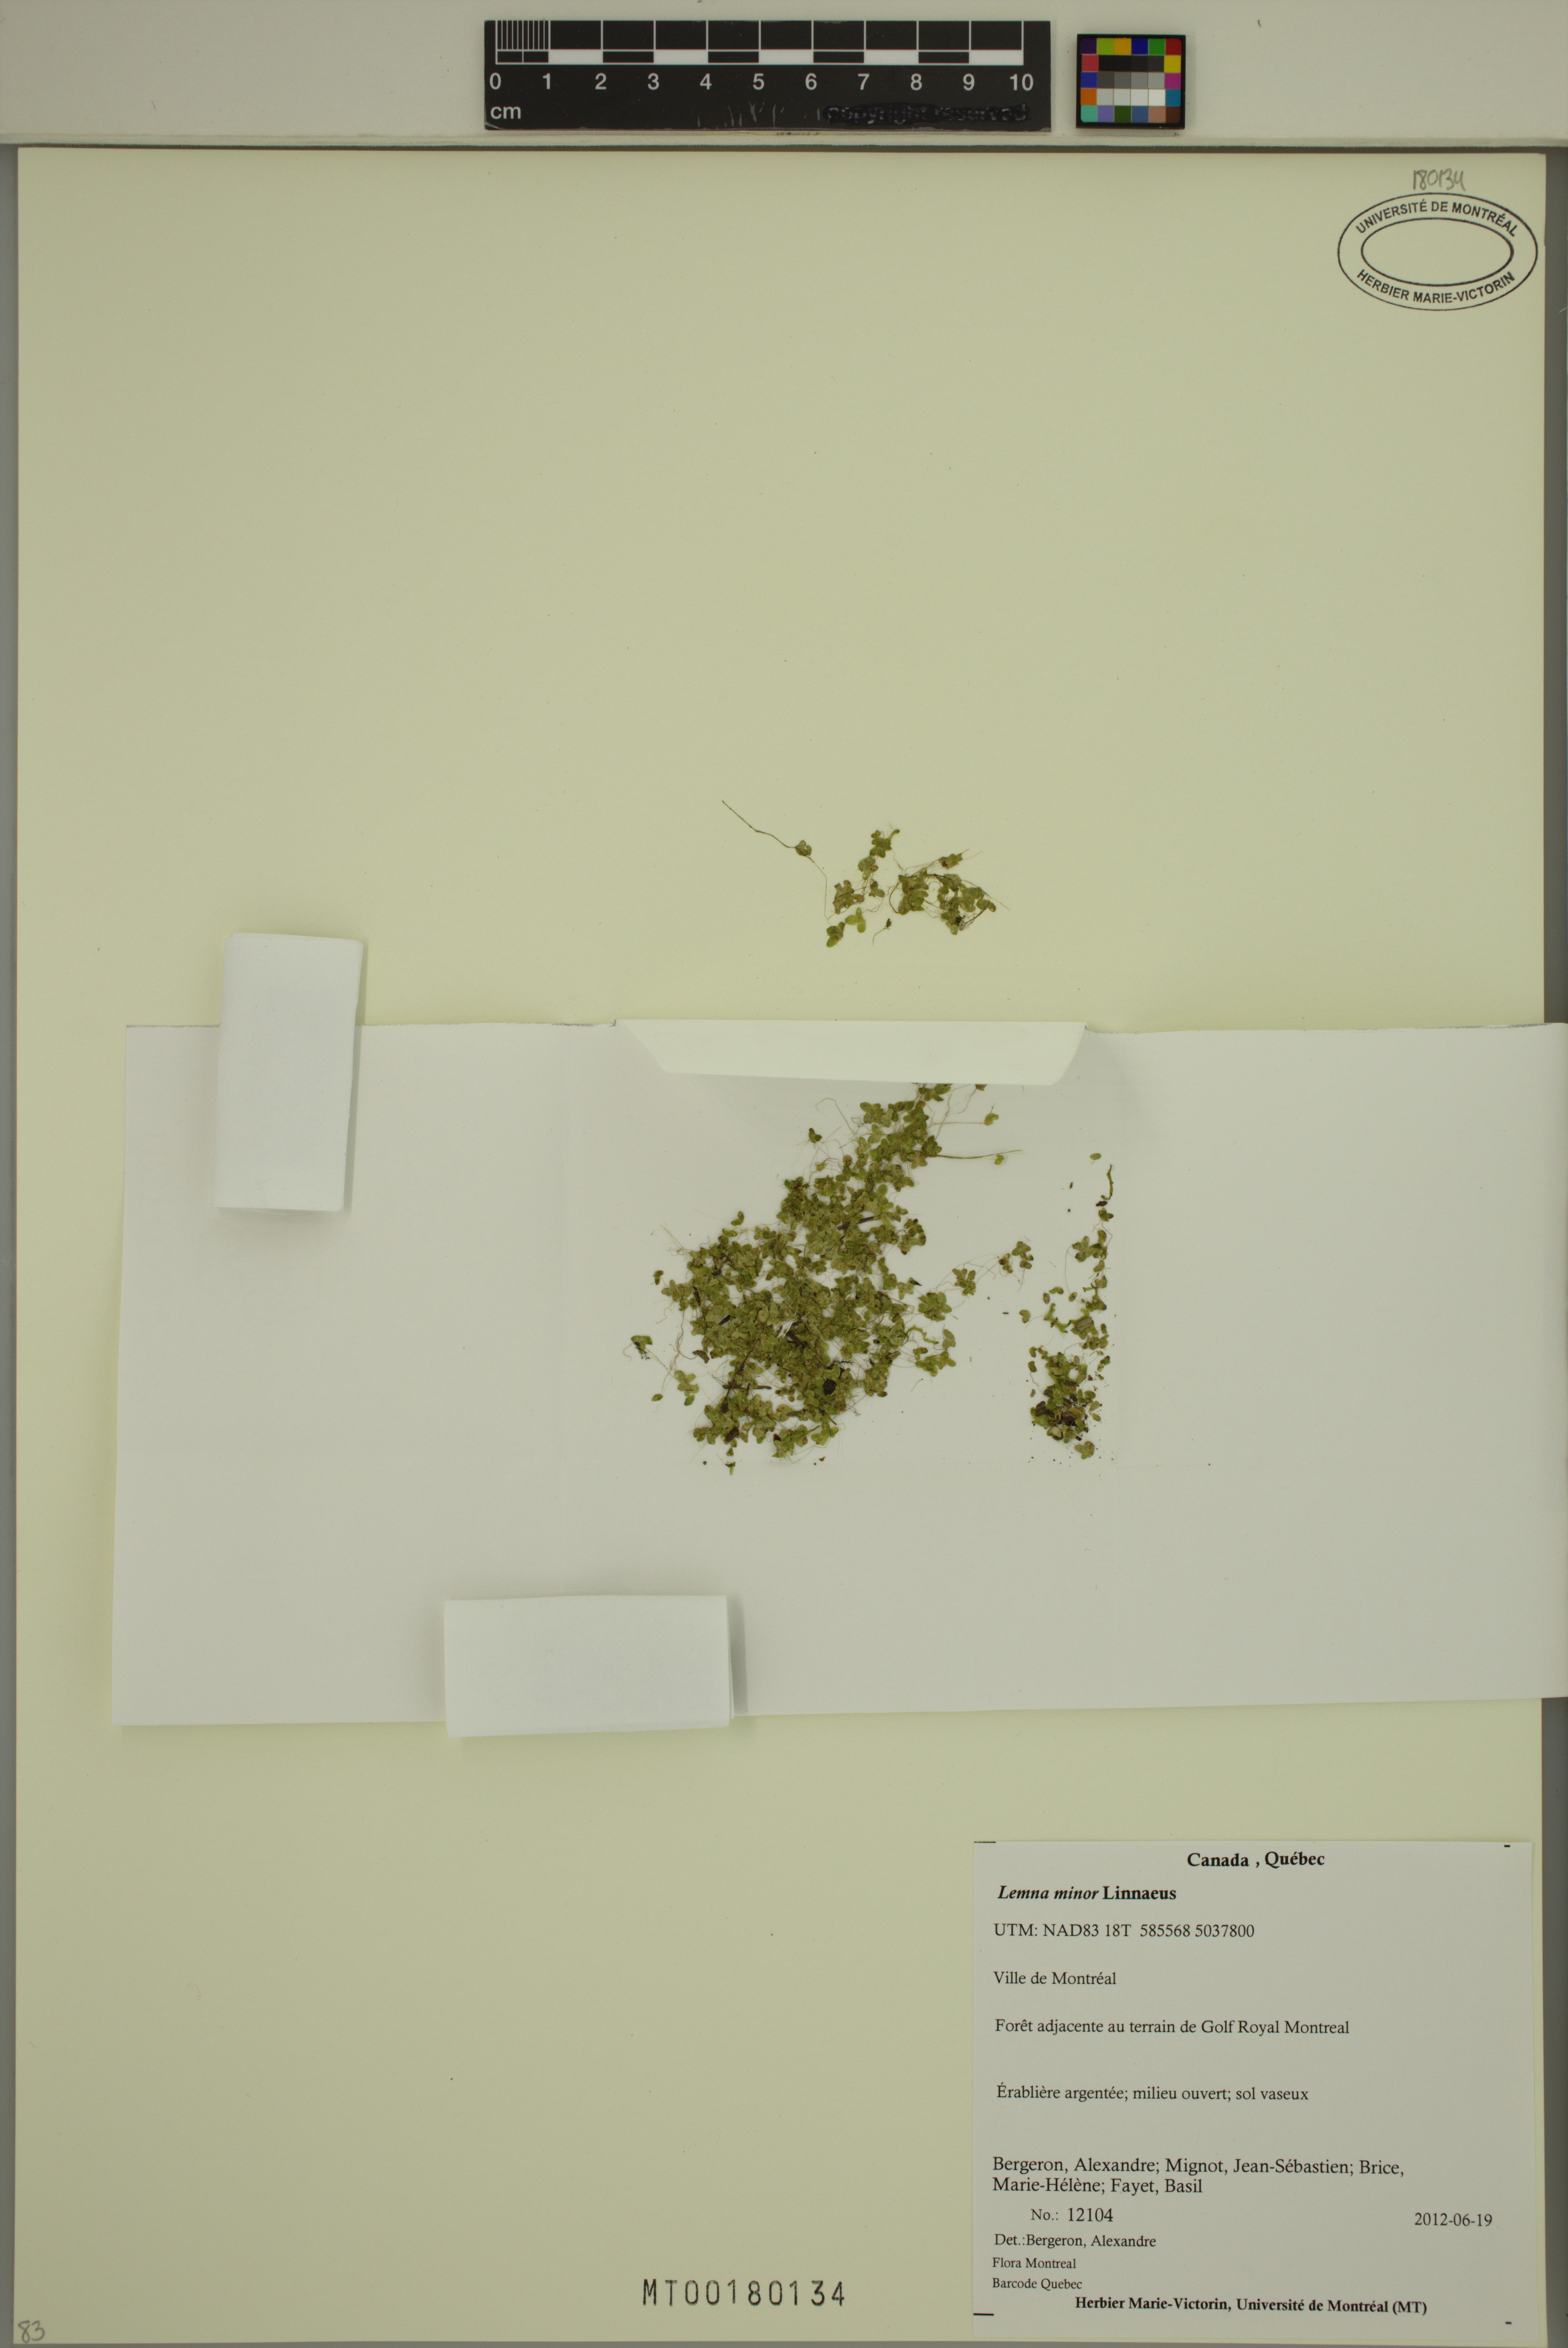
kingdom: Plantae
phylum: Tracheophyta
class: Liliopsida
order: Alismatales
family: Araceae
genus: Lemna
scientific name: Lemna minor
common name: Common duckweed
